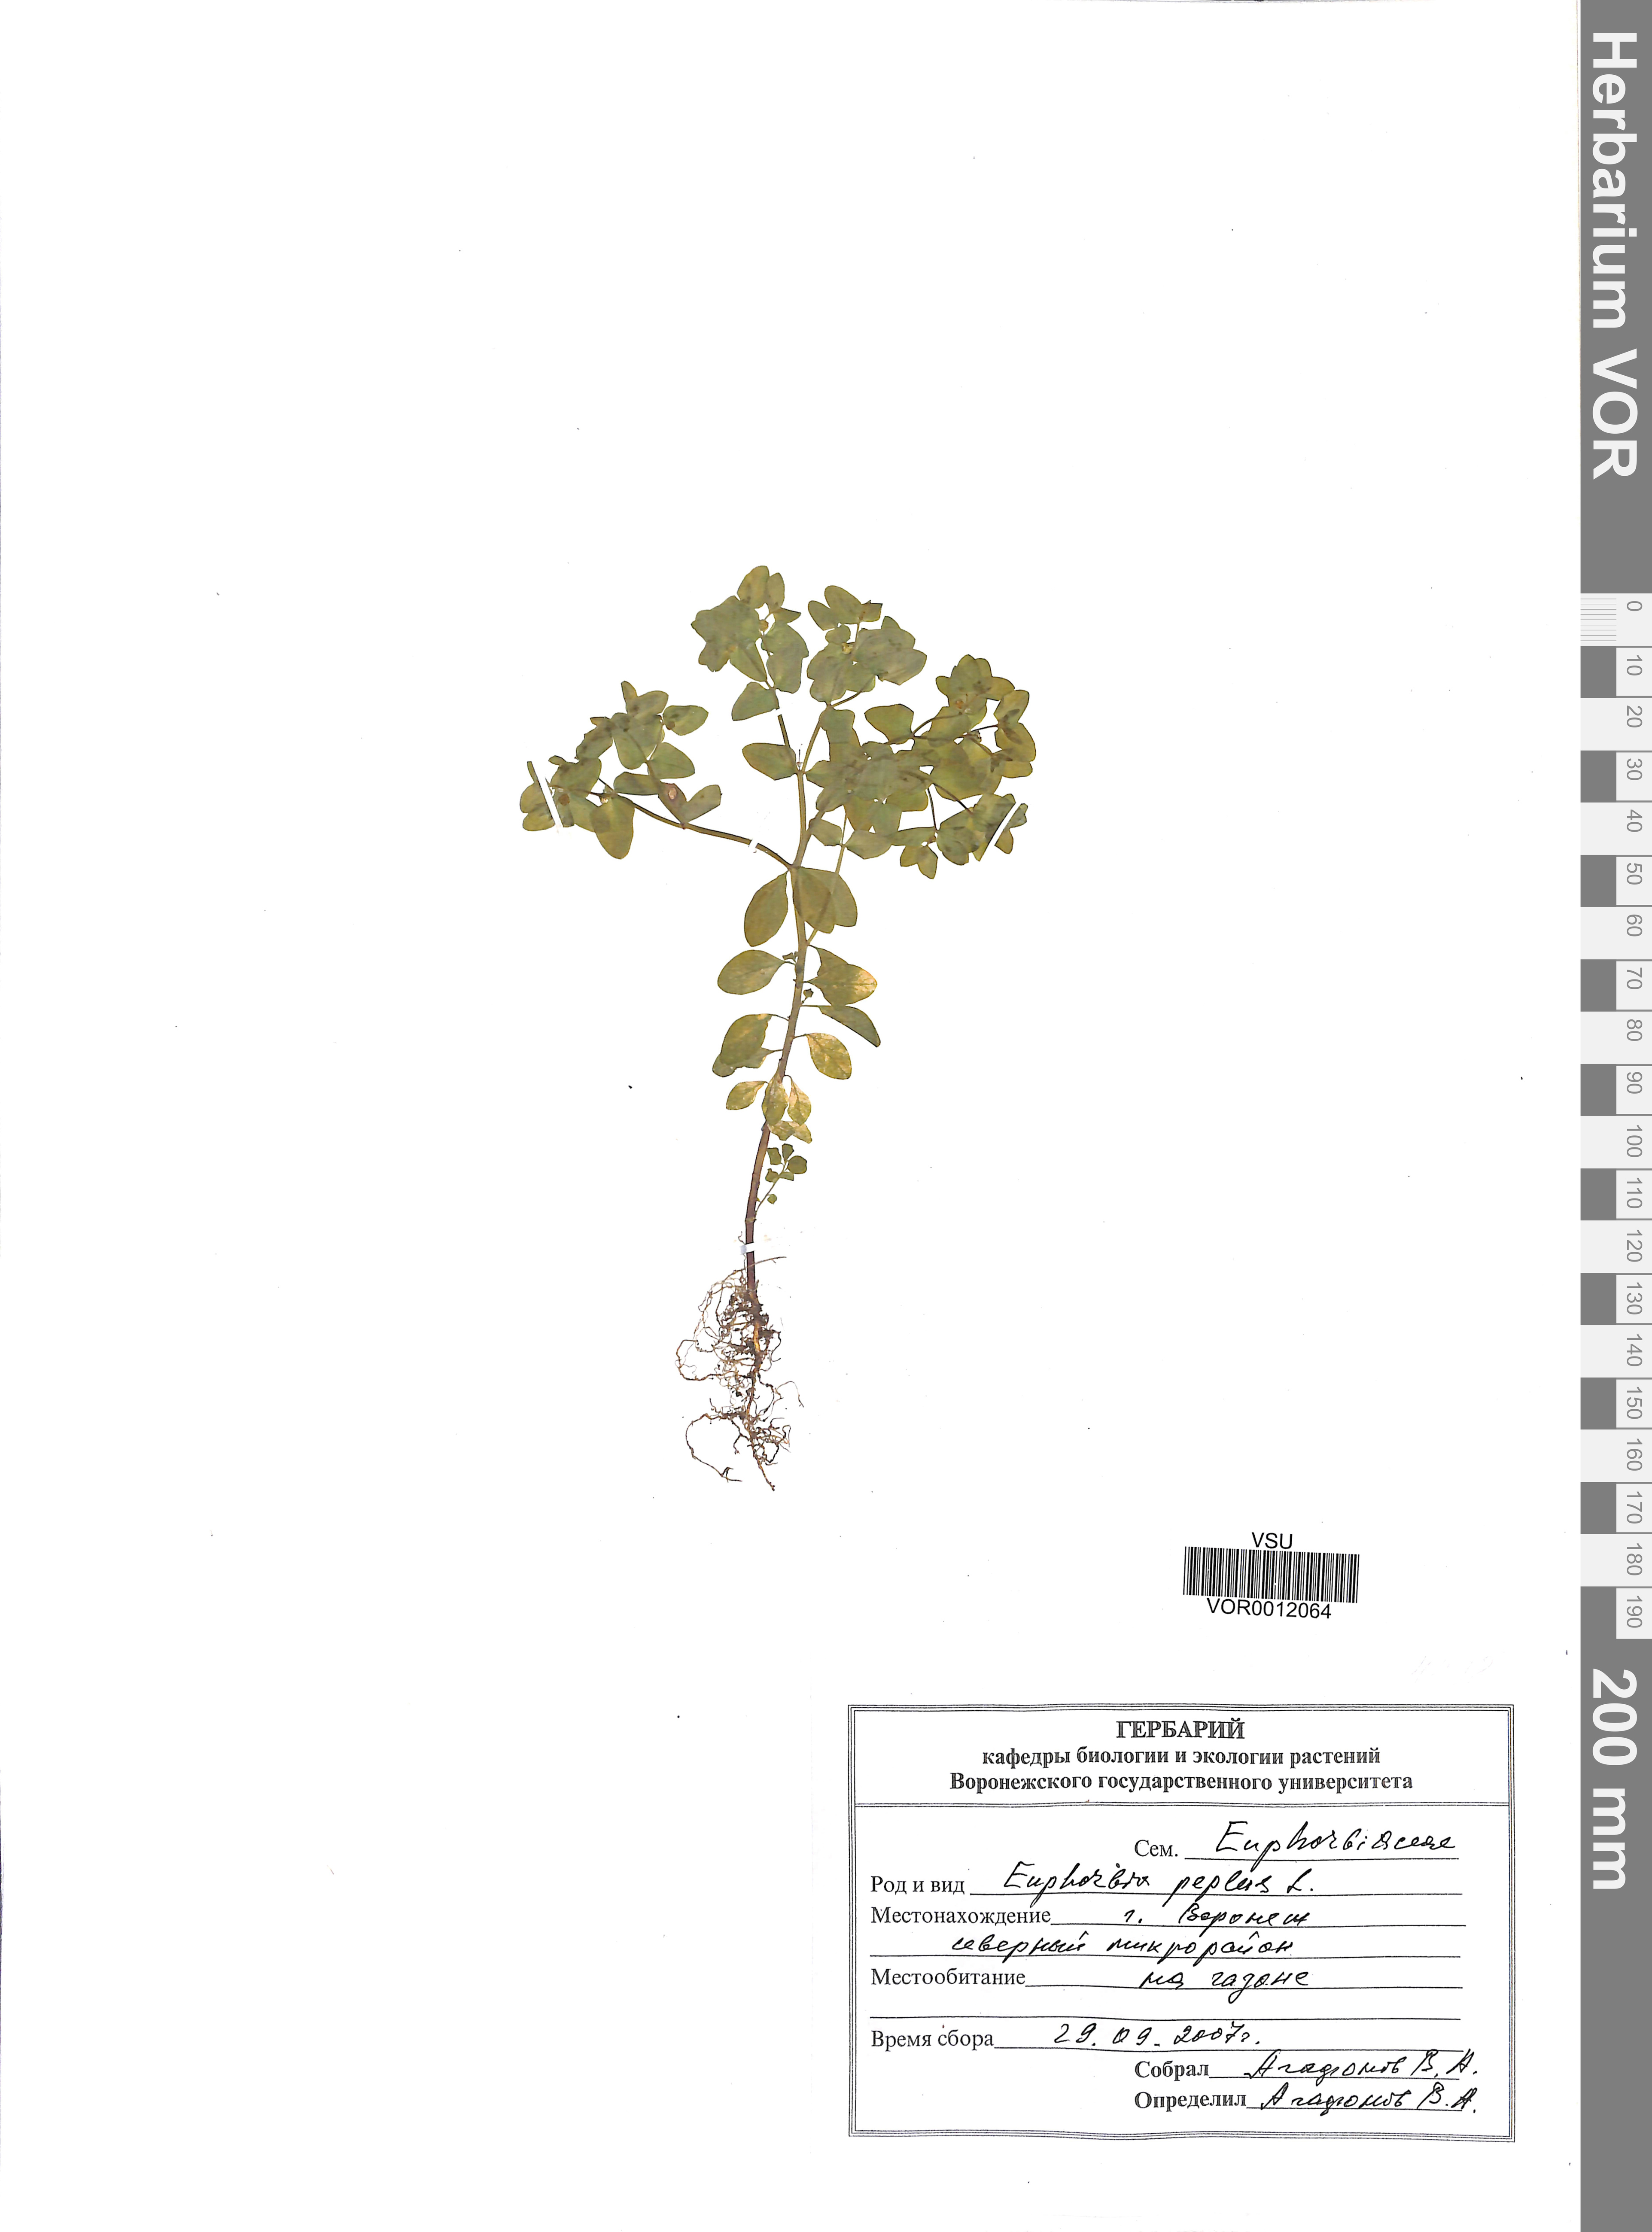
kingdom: Plantae
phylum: Tracheophyta
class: Magnoliopsida
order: Malpighiales
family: Euphorbiaceae
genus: Euphorbia
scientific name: Euphorbia peplus
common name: Petty spurge
